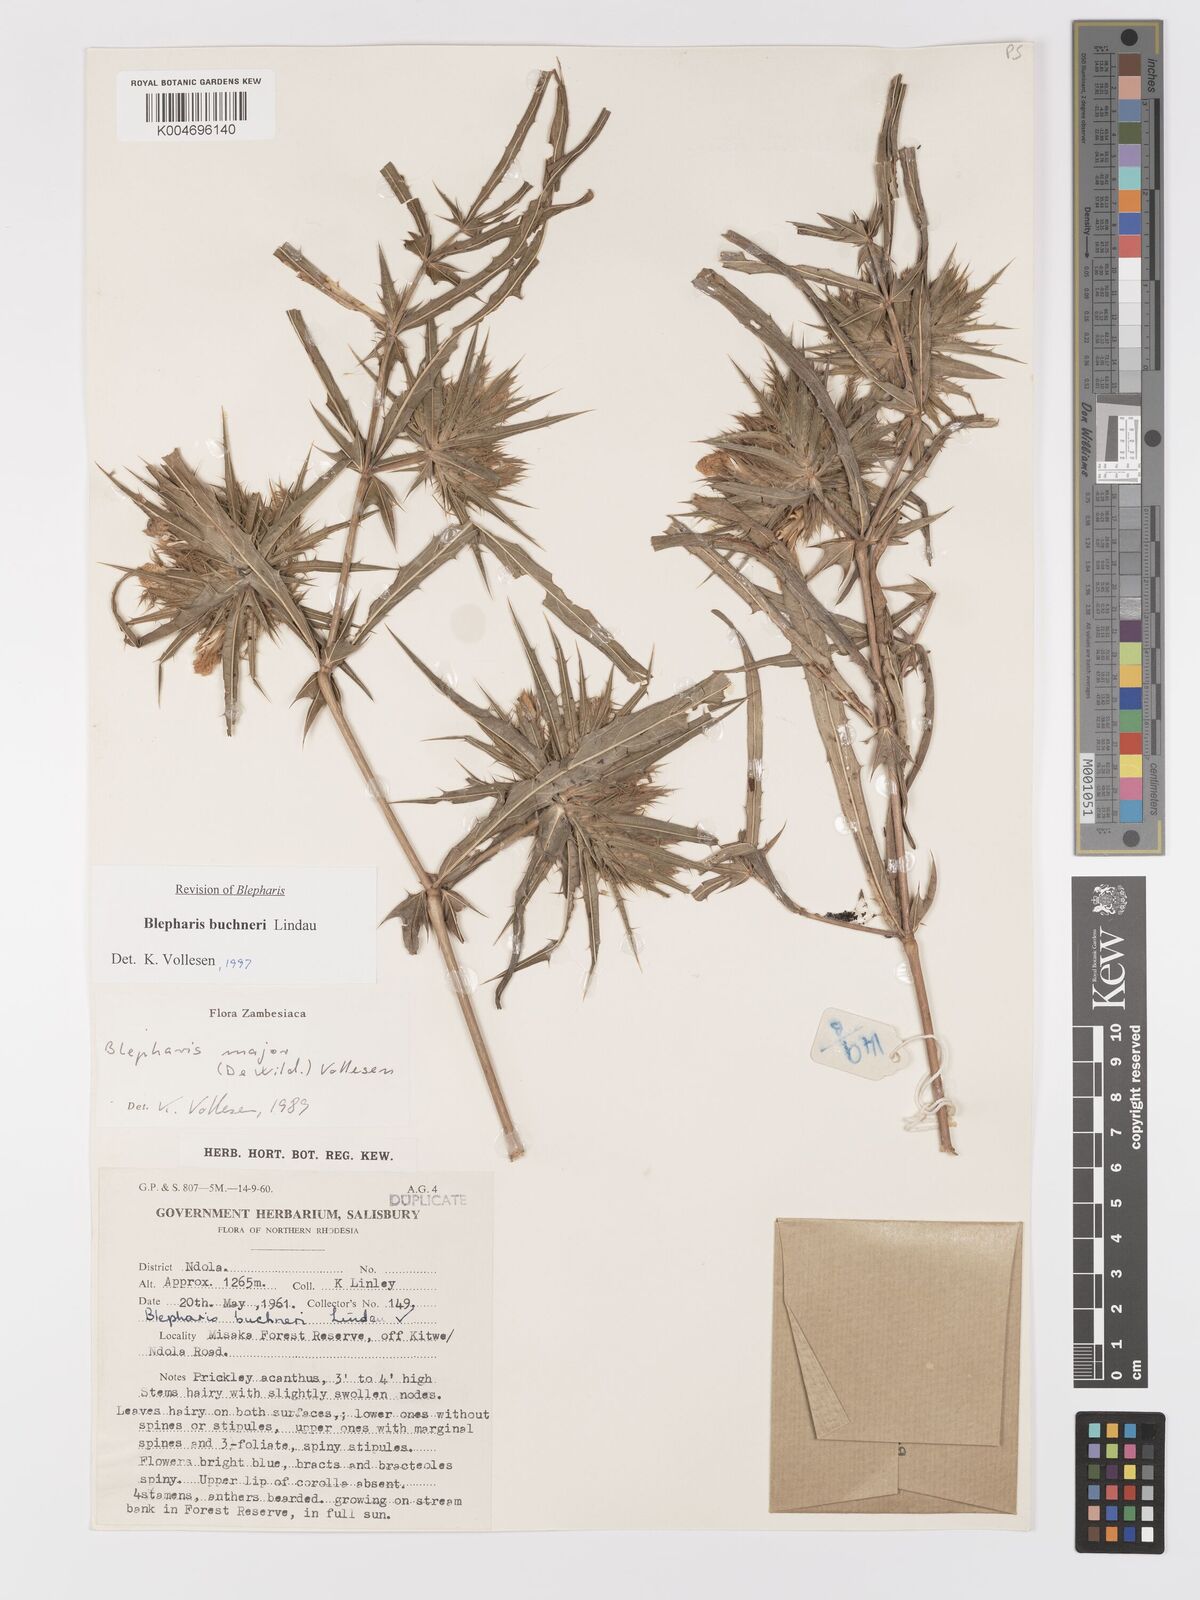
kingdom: Plantae
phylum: Tracheophyta
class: Magnoliopsida
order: Lamiales
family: Acanthaceae
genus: Blepharis
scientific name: Blepharis buchneri
